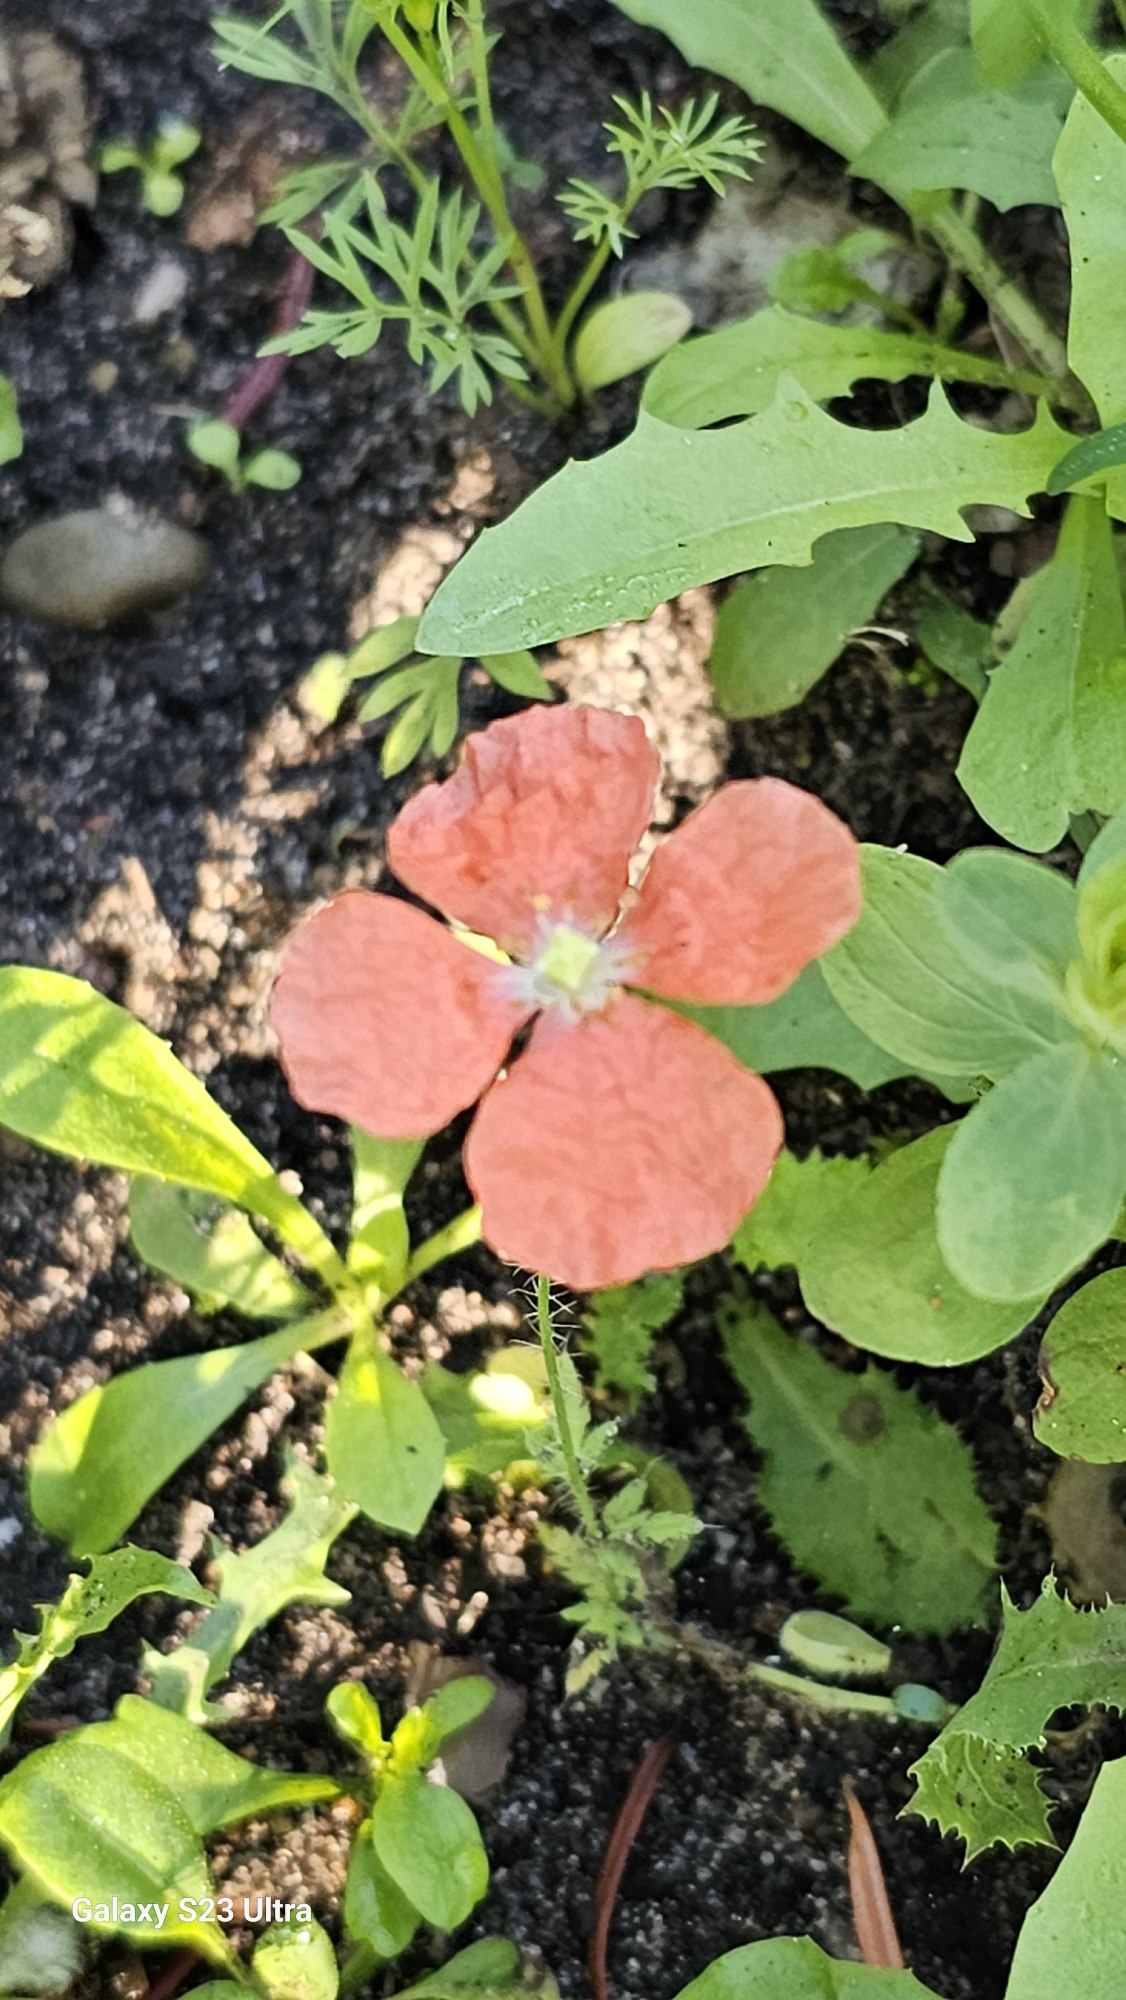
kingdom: Plantae
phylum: Tracheophyta
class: Magnoliopsida
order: Ranunculales
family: Papaveraceae
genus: Papaver
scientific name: Papaver
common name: Valmueslægten
